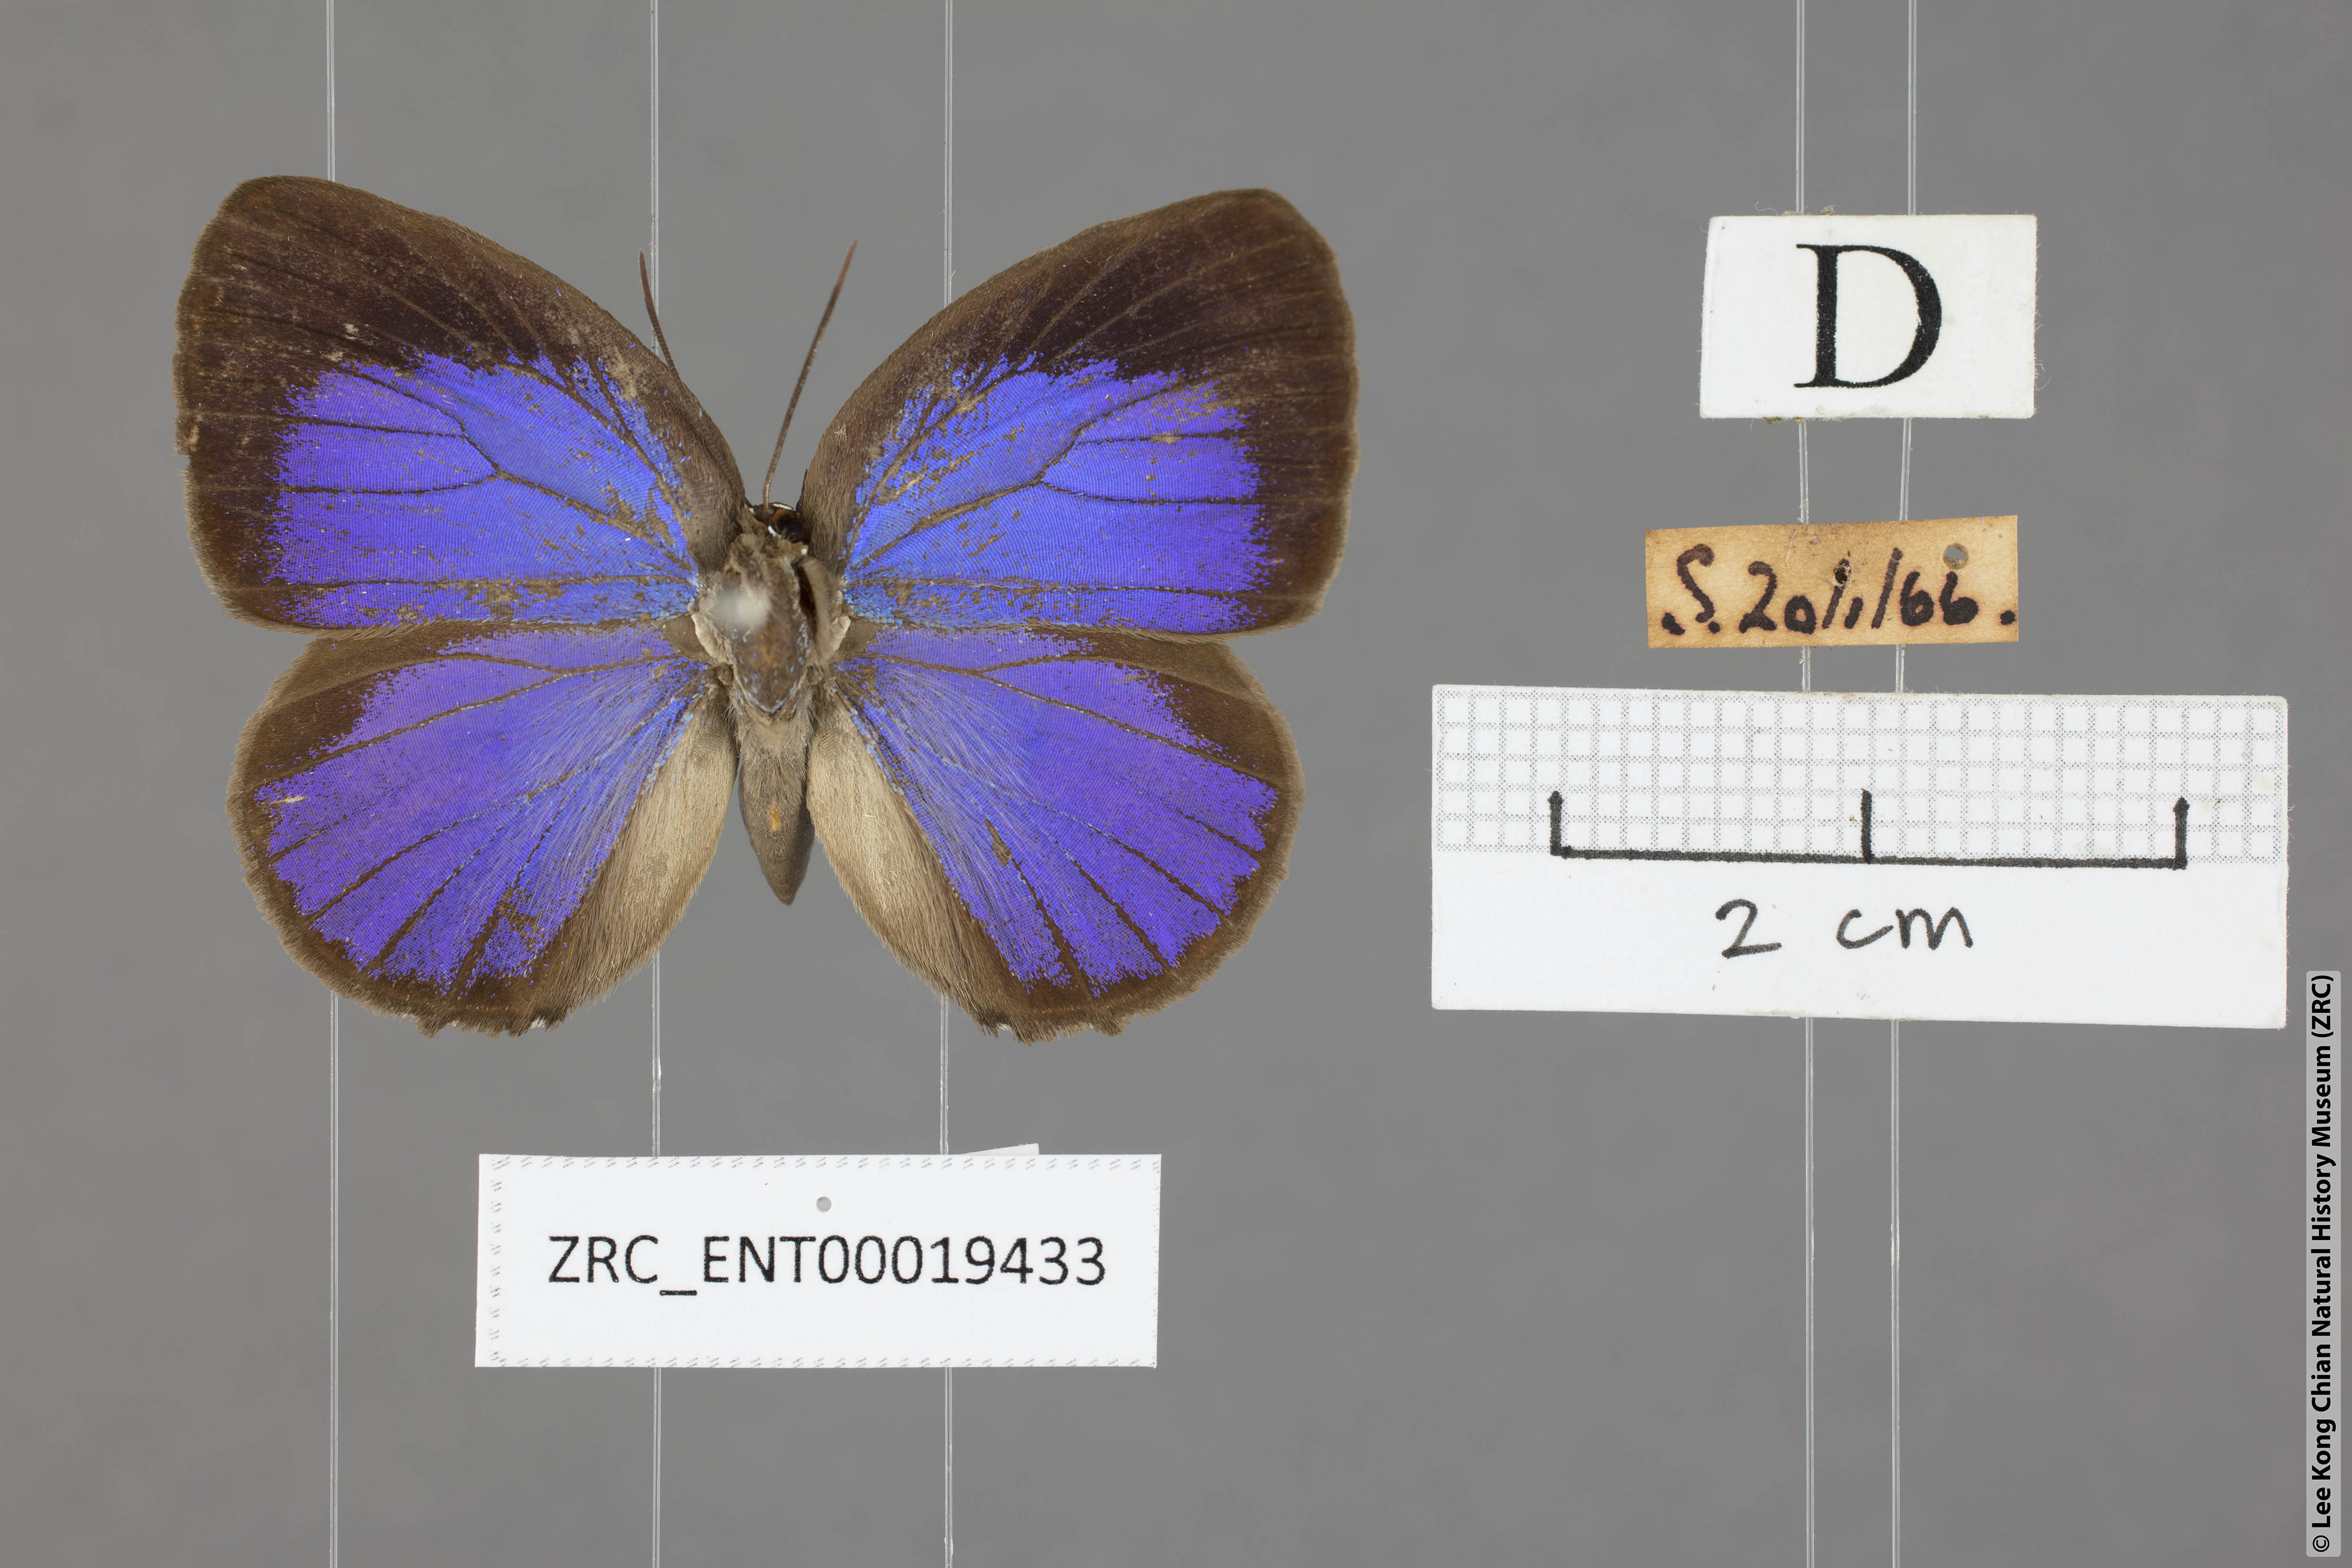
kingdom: Animalia
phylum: Arthropoda
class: Insecta
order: Lepidoptera
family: Lycaenidae
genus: Arhopala
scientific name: Arhopala epimuta
